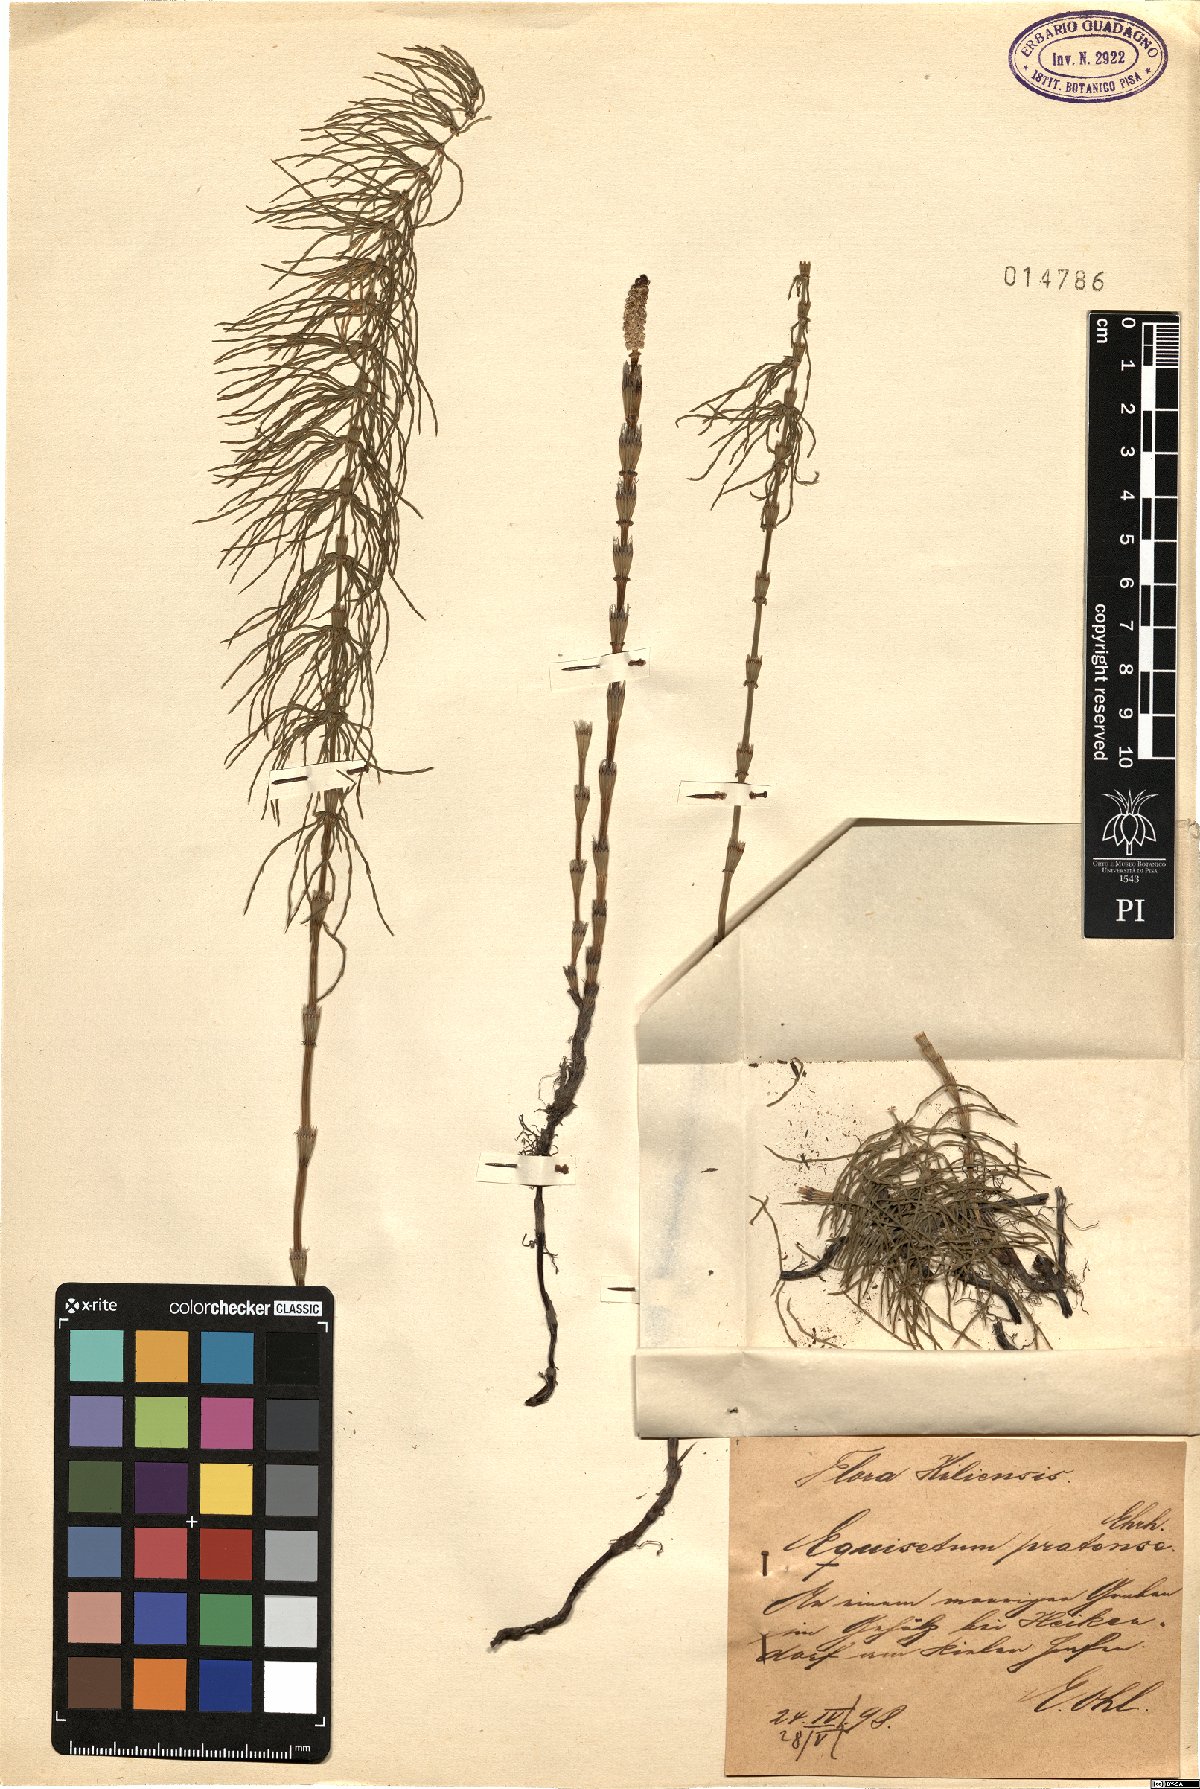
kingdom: Plantae
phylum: Tracheophyta
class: Polypodiopsida
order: Equisetales
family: Equisetaceae
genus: Equisetum
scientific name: Equisetum pratense
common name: Meadow horsetail
